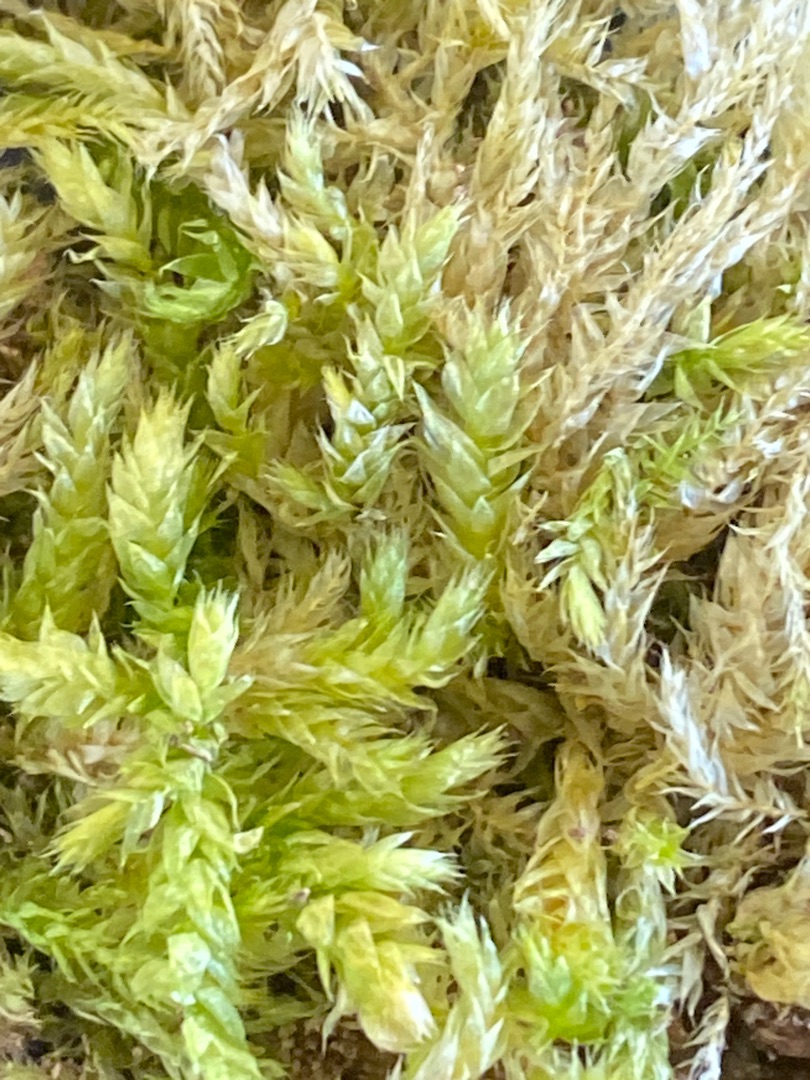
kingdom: Plantae
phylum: Bryophyta
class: Bryopsida
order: Hypnales
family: Brachytheciaceae
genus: Brachythecium
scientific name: Brachythecium rutabulum
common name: Almindelig kortkapsel
